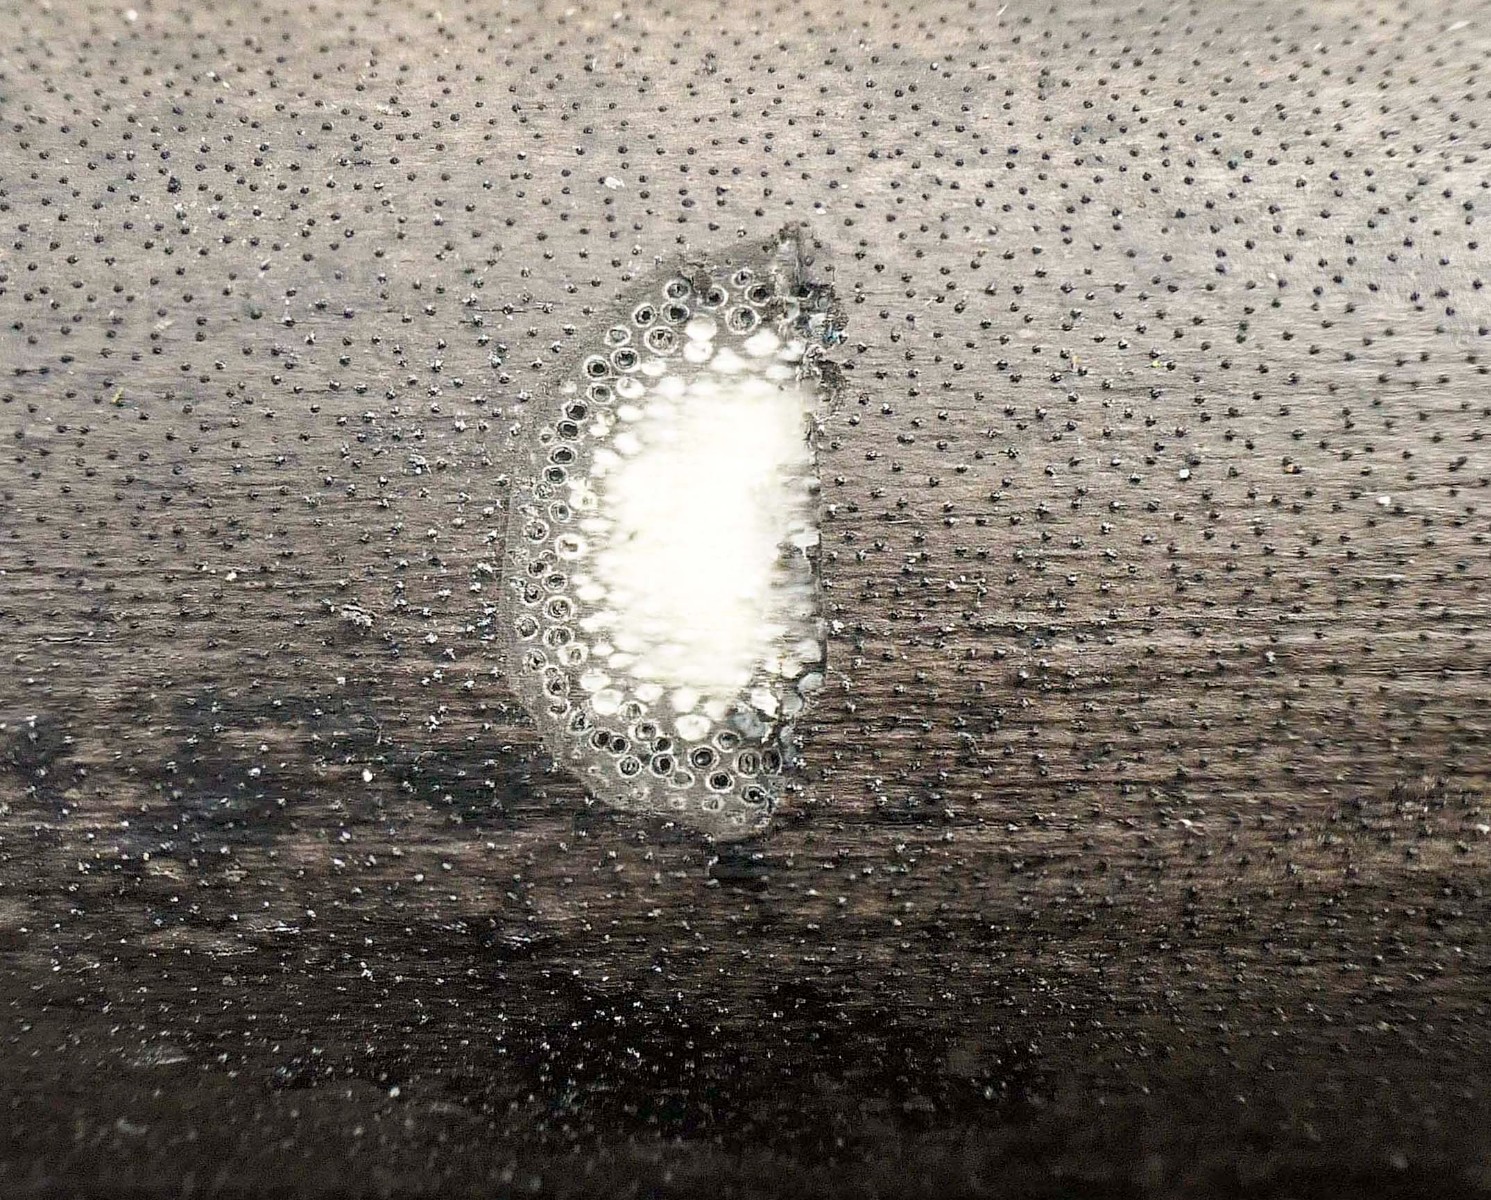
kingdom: Fungi
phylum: Ascomycota
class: Sordariomycetes
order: Xylariales
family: Diatrypaceae
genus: Eutypa
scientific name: Eutypa maura
